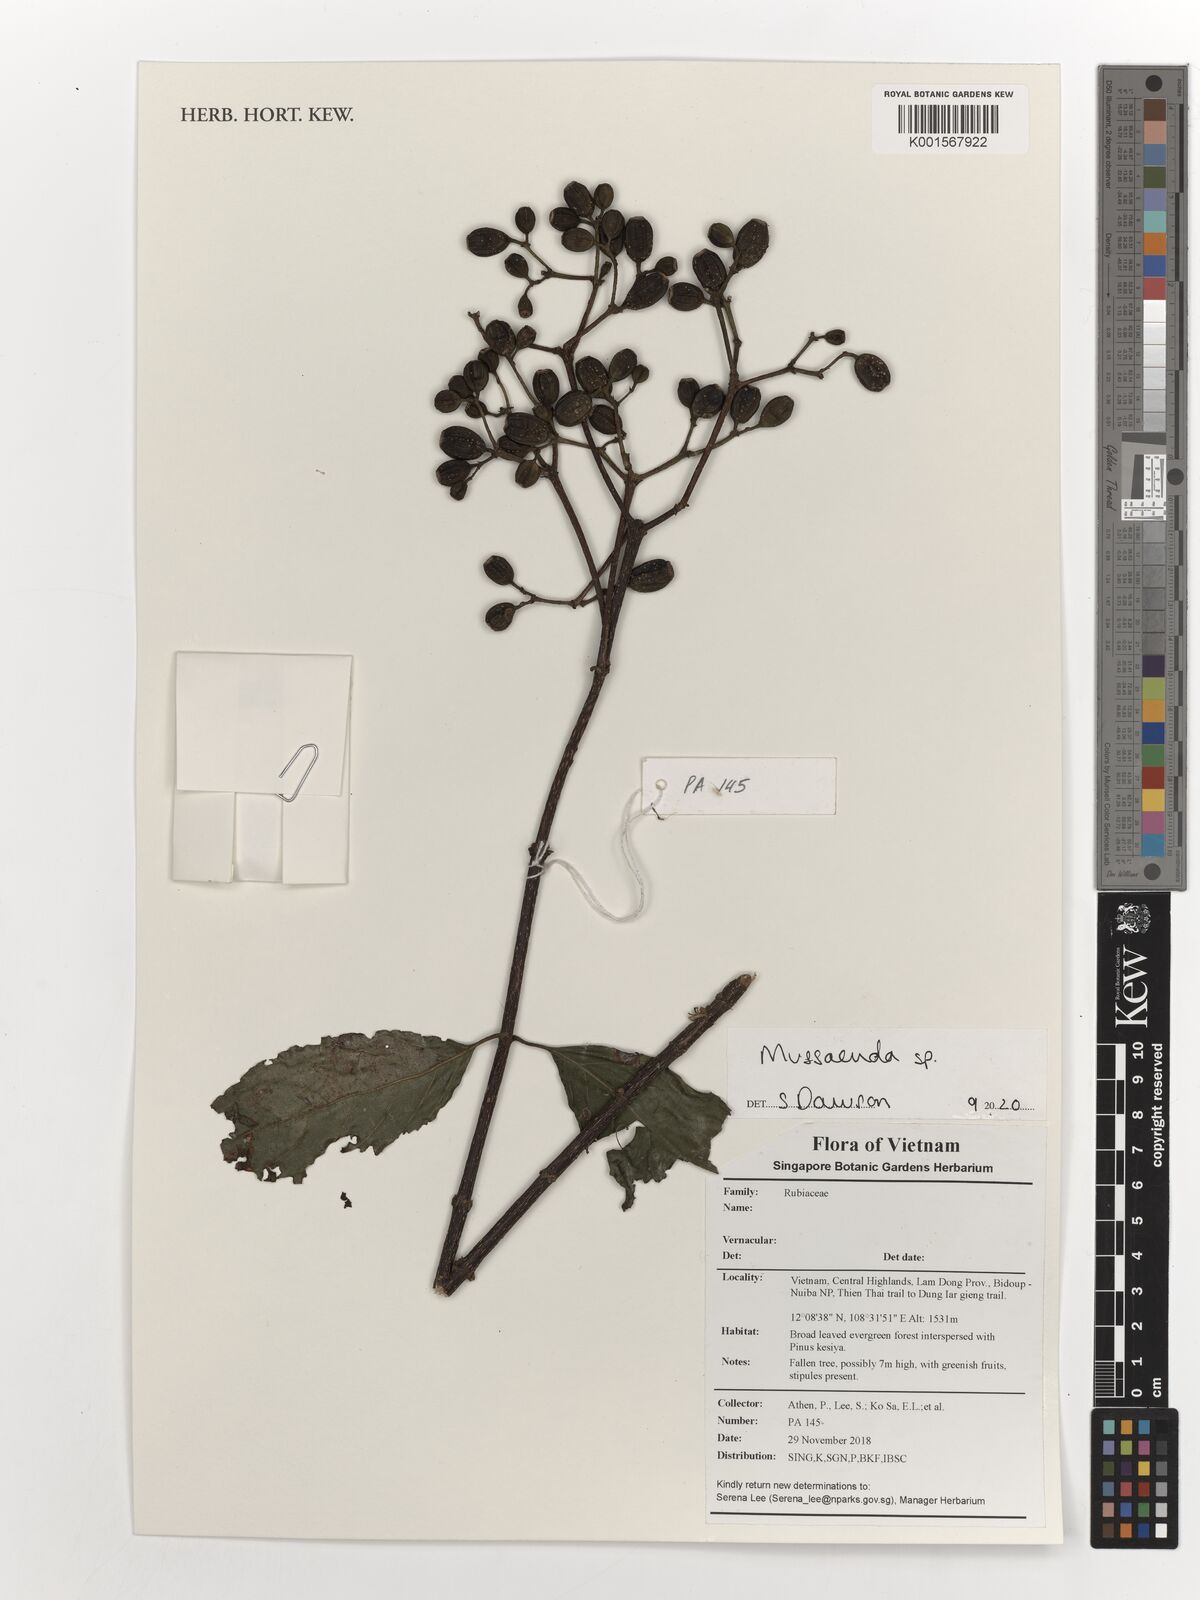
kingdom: Plantae
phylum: Tracheophyta
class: Magnoliopsida
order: Gentianales
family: Rubiaceae
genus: Mussaenda
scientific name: Mussaenda
